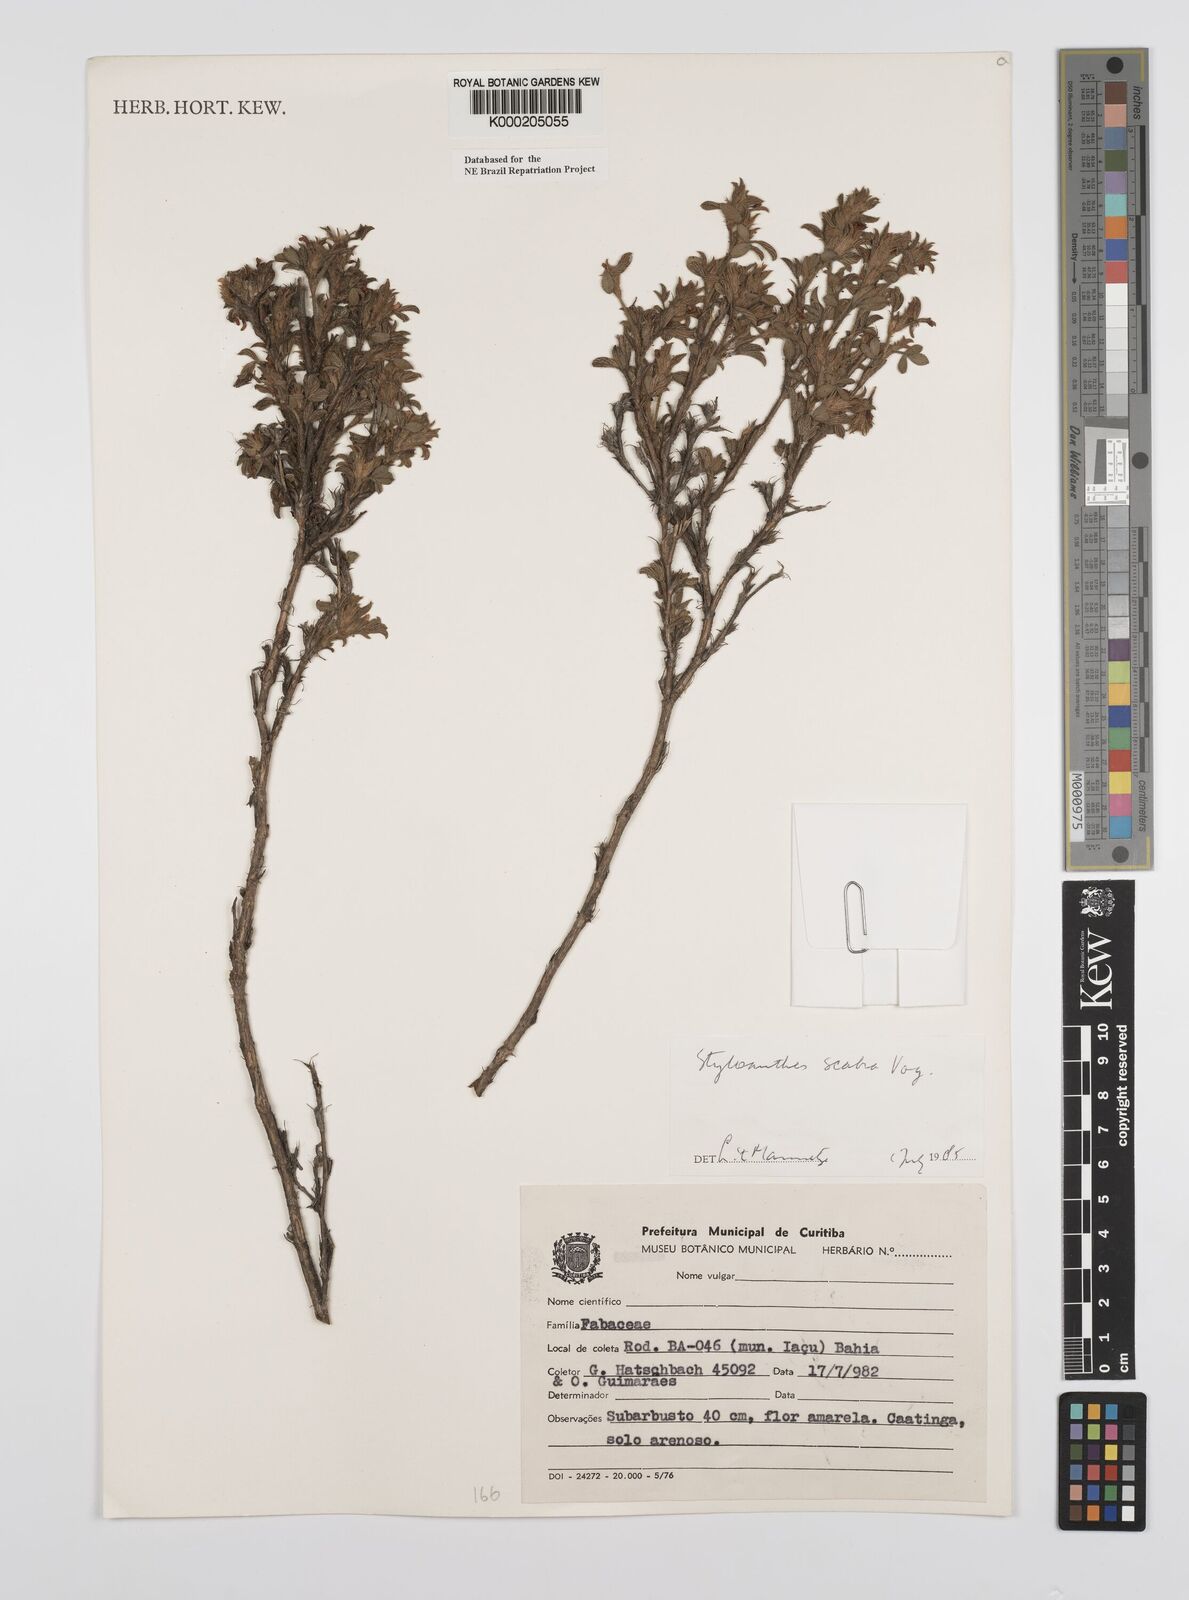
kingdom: Plantae
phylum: Tracheophyta
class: Magnoliopsida
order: Fabales
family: Fabaceae
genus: Stylosanthes
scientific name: Stylosanthes scabra
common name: Pencilflower
